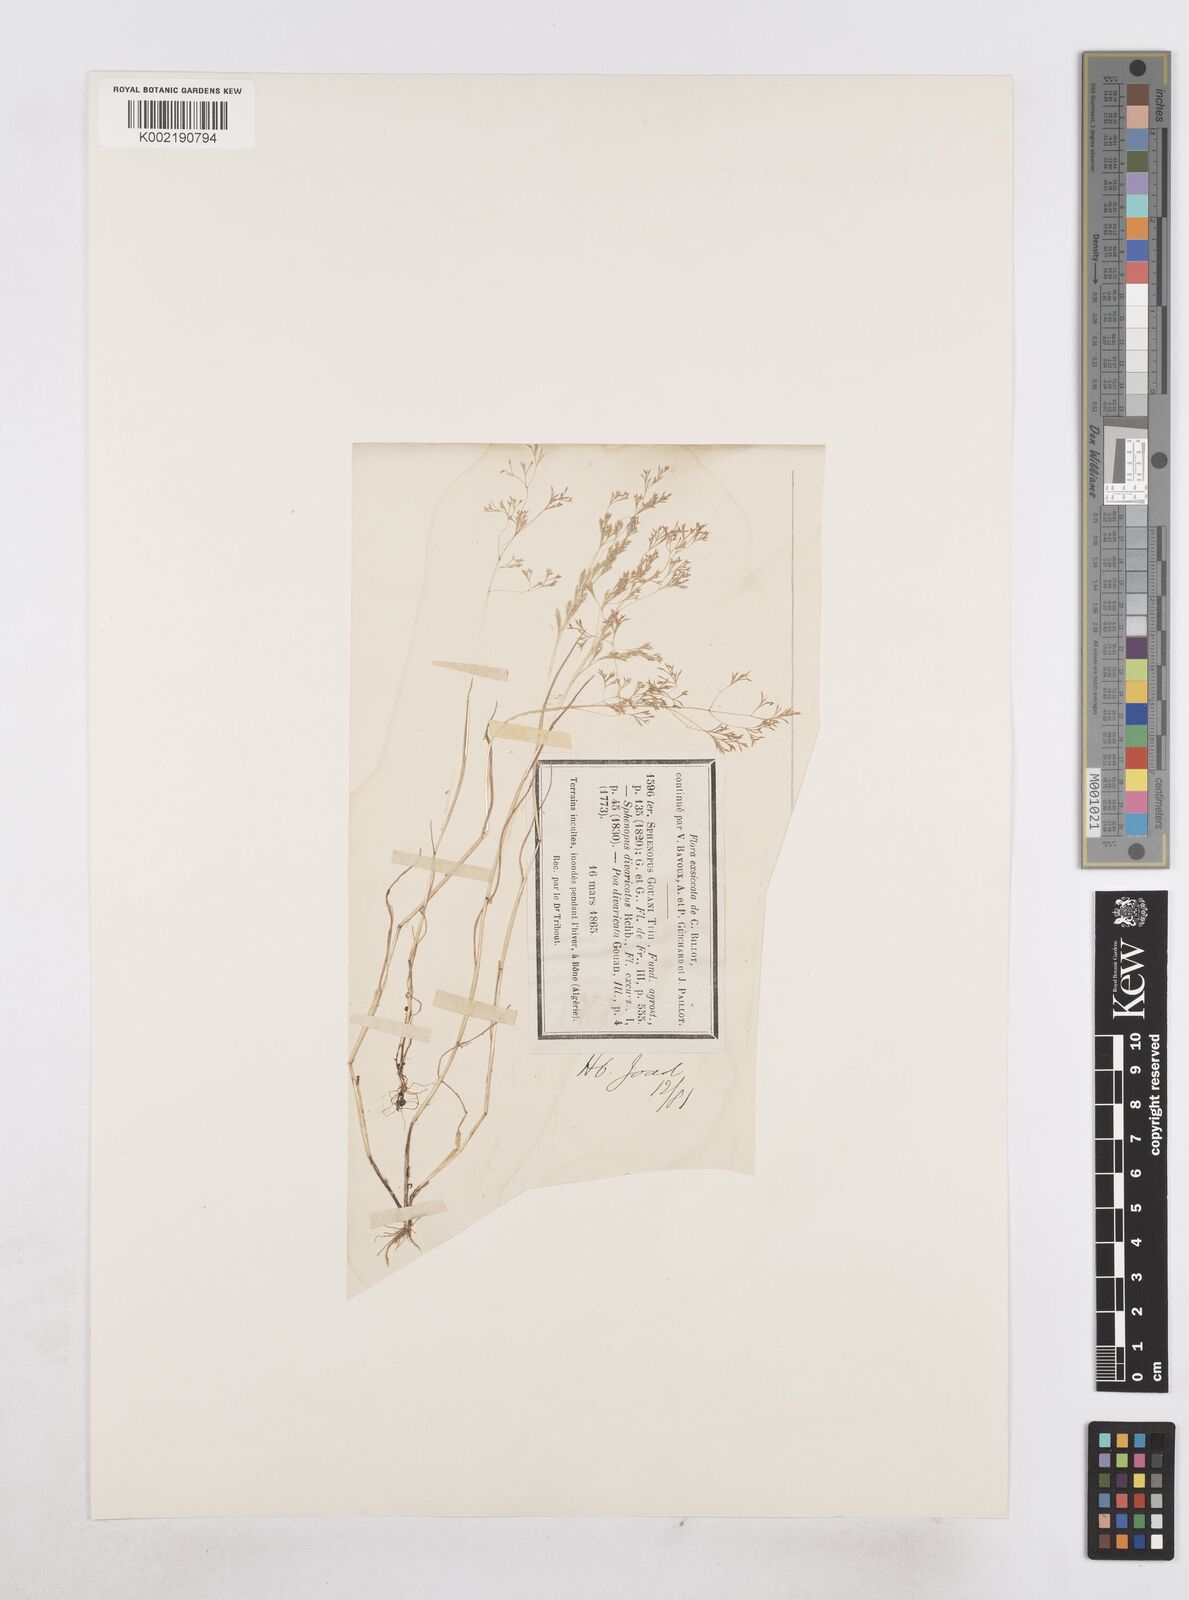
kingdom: Plantae
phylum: Tracheophyta
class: Liliopsida
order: Poales
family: Poaceae
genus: Sphenopus
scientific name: Sphenopus divaricatus
